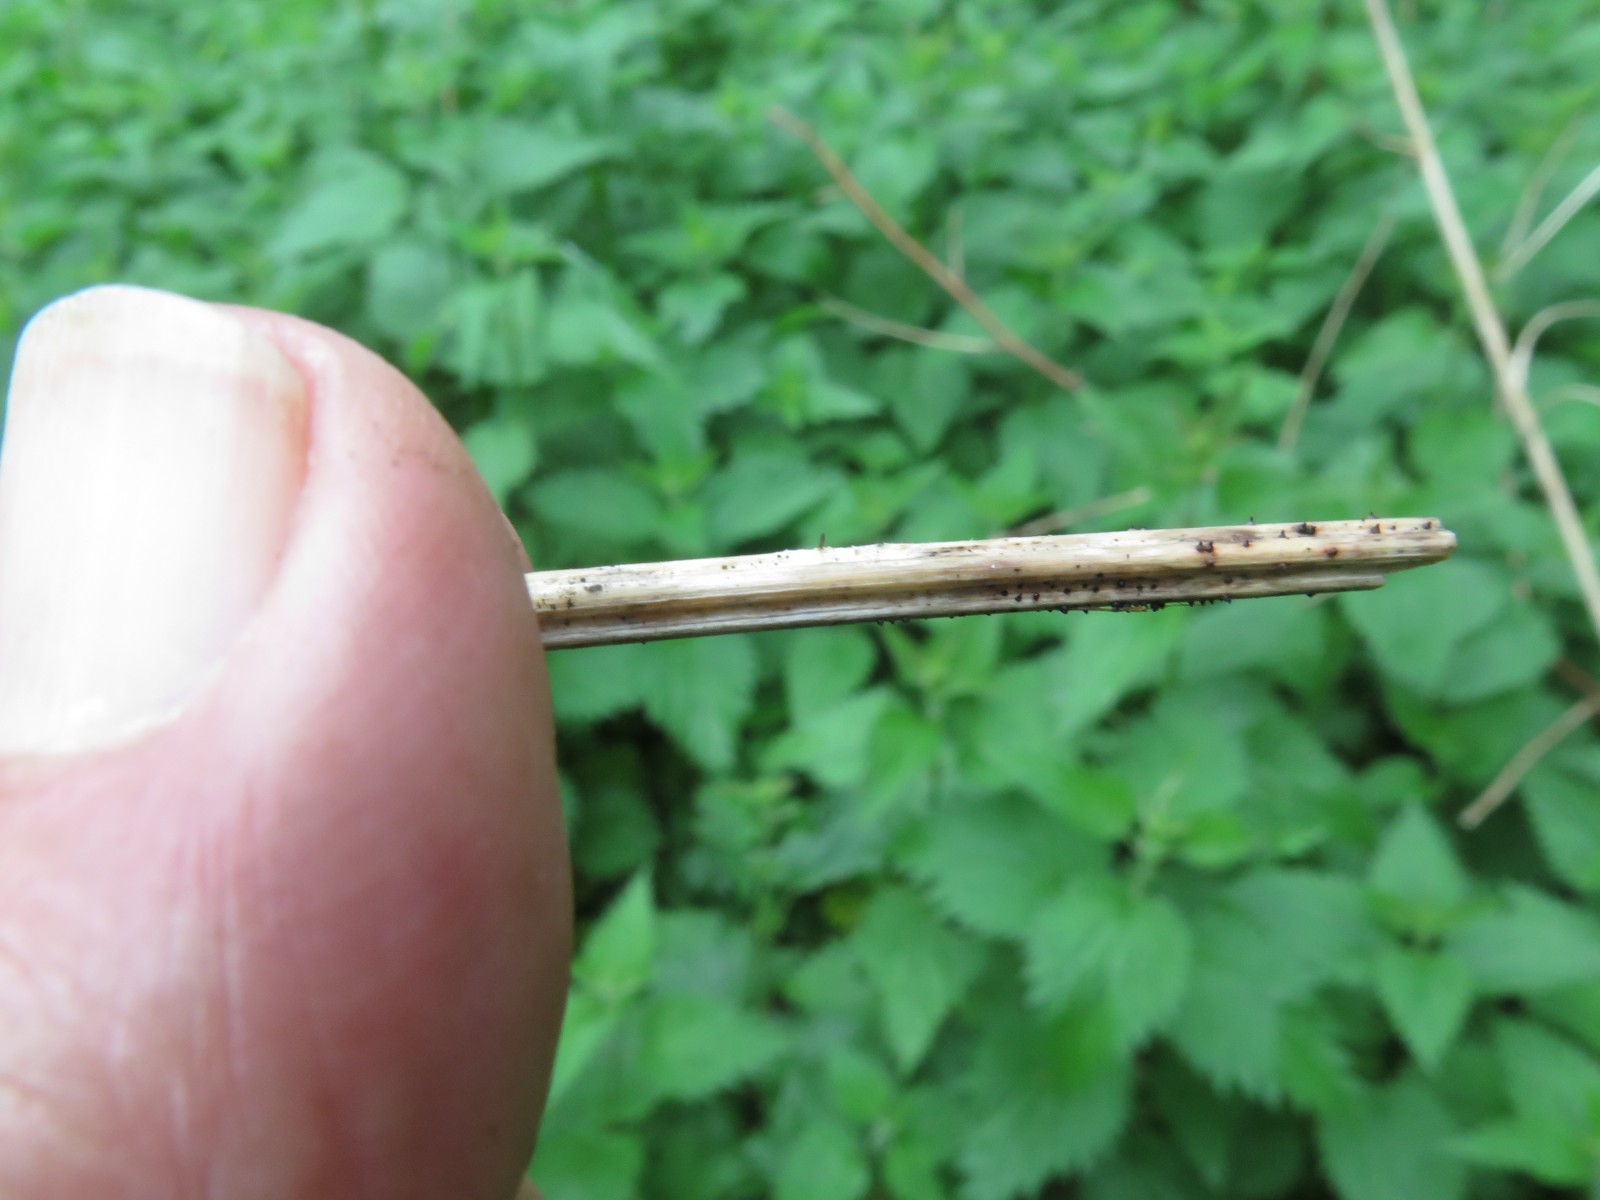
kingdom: Fungi
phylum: Ascomycota
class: Dothideomycetes
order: Acrospermales
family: Acrospermaceae
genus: Acrospermum
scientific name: Acrospermum compressum
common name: nælde-stængeltunge
